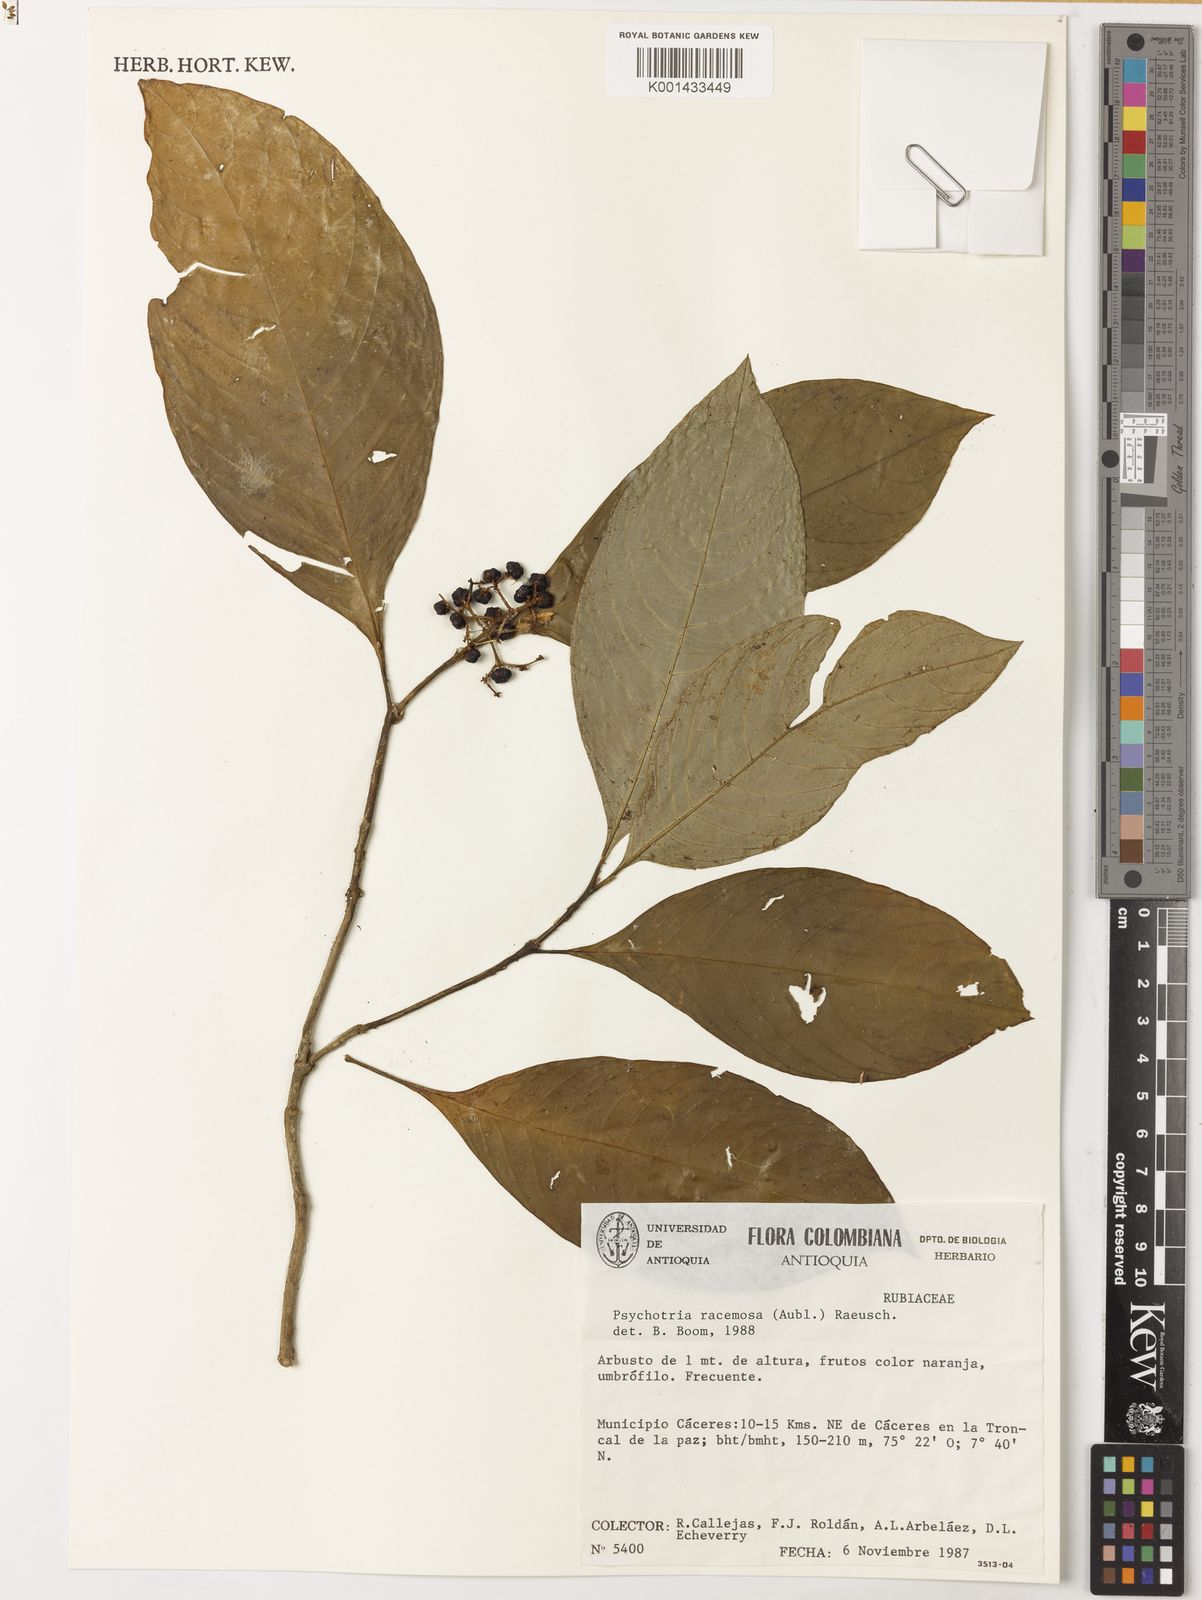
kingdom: Plantae
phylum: Tracheophyta
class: Magnoliopsida
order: Gentianales
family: Rubiaceae
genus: Palicourea
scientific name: Palicourea racemosa
